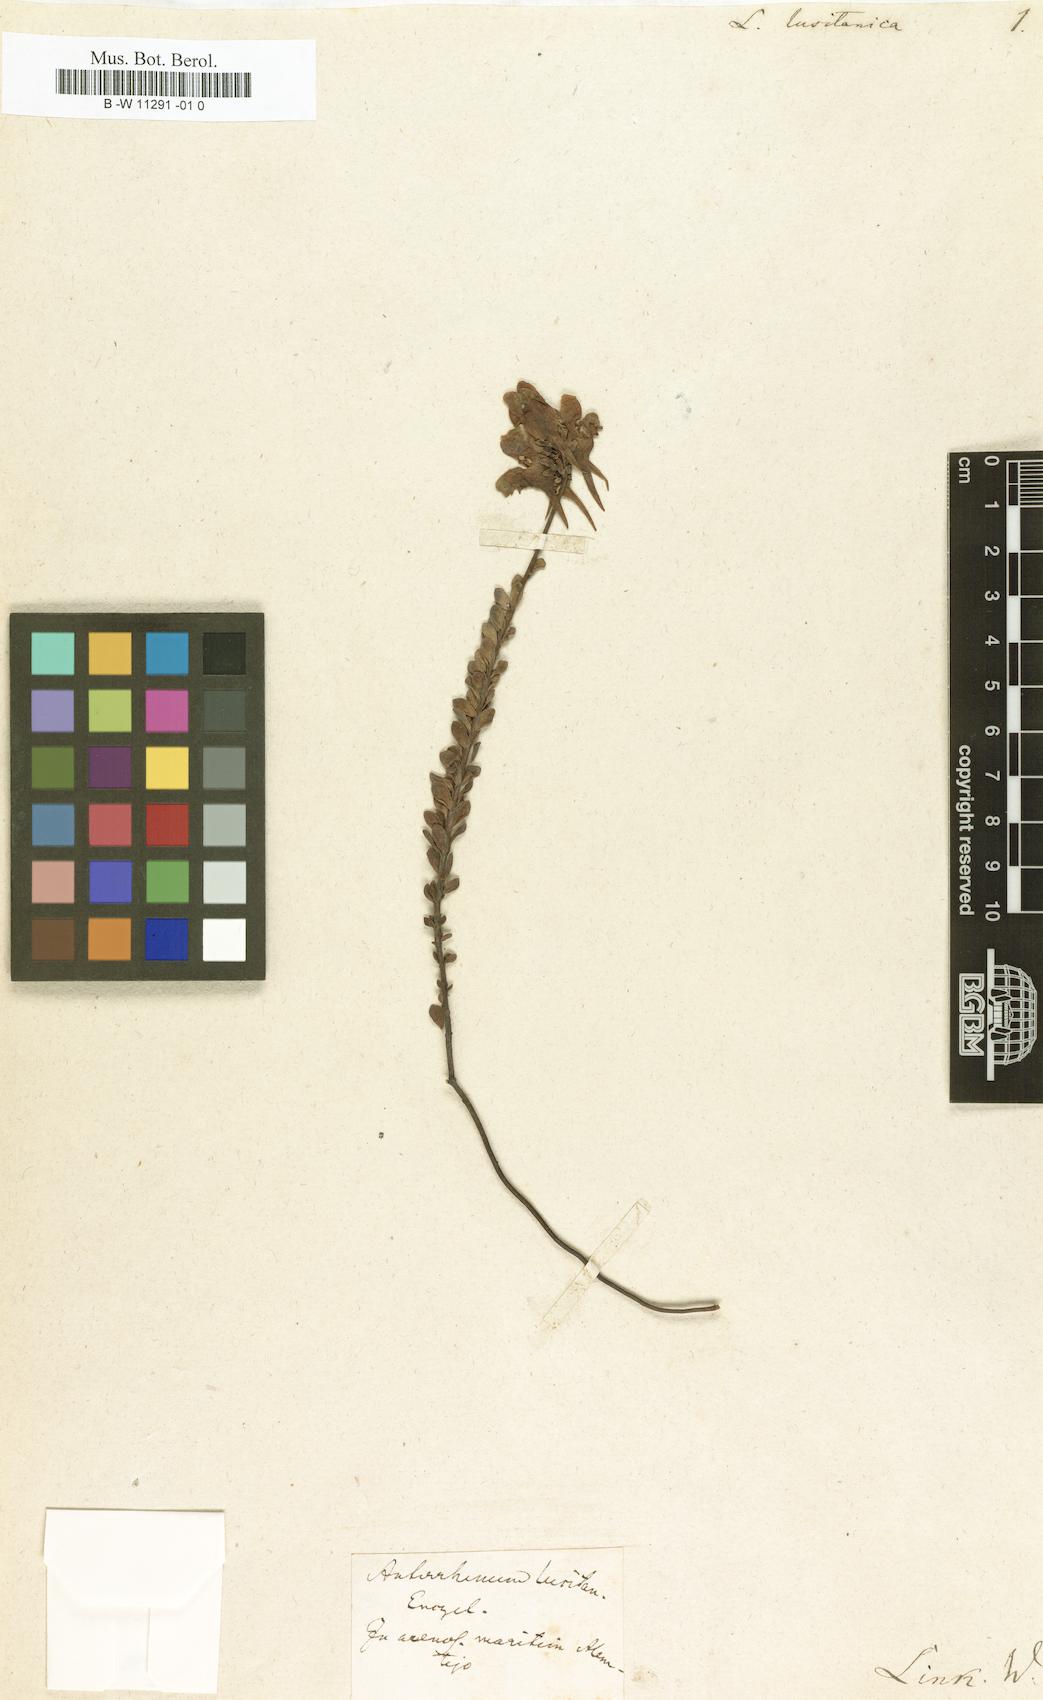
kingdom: Plantae
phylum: Tracheophyta
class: Magnoliopsida
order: Lamiales
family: Plantaginaceae
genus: Linaria
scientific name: Linaria
